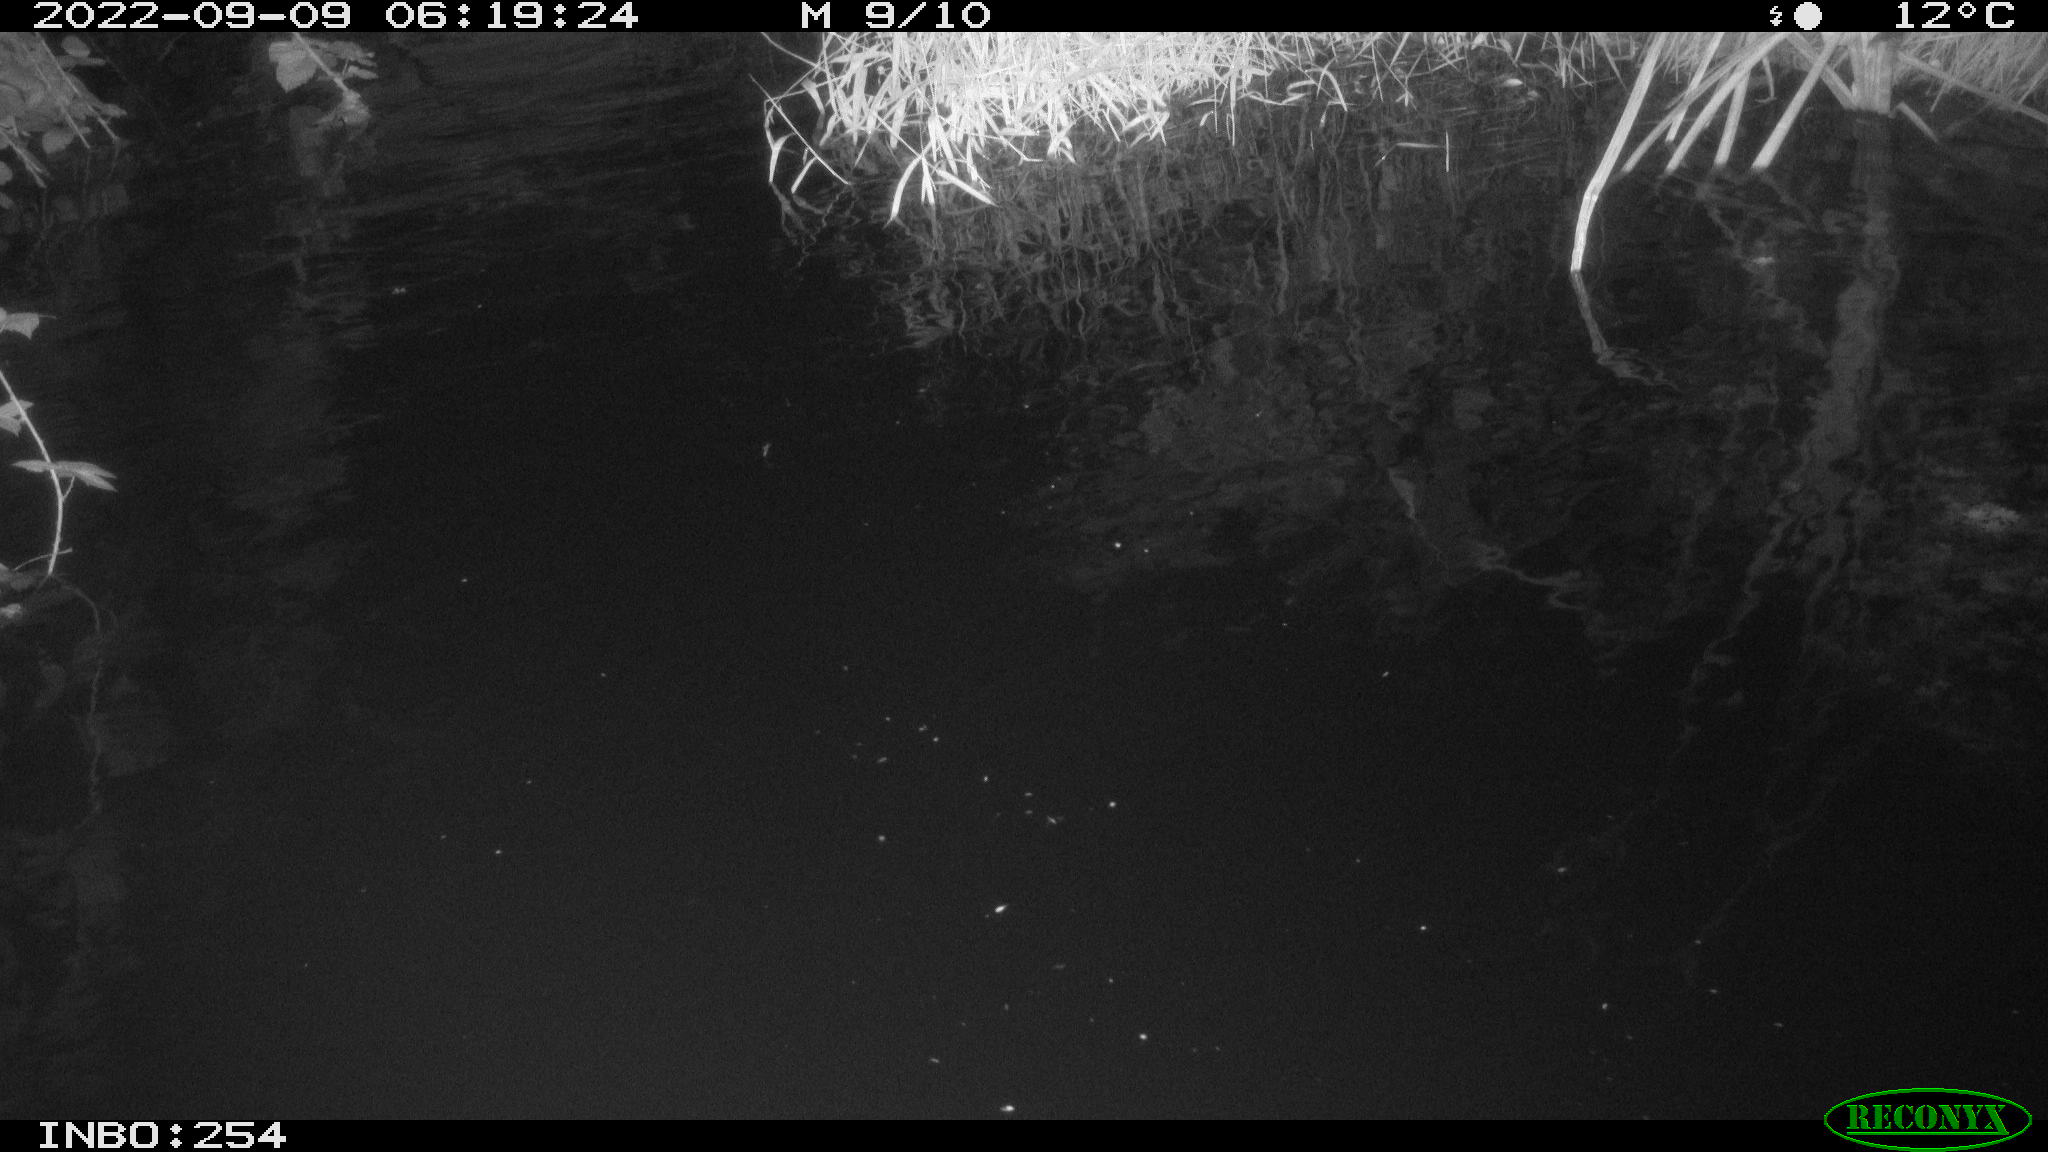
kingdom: Animalia
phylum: Chordata
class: Aves
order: Anseriformes
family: Anatidae
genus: Anas
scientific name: Anas
